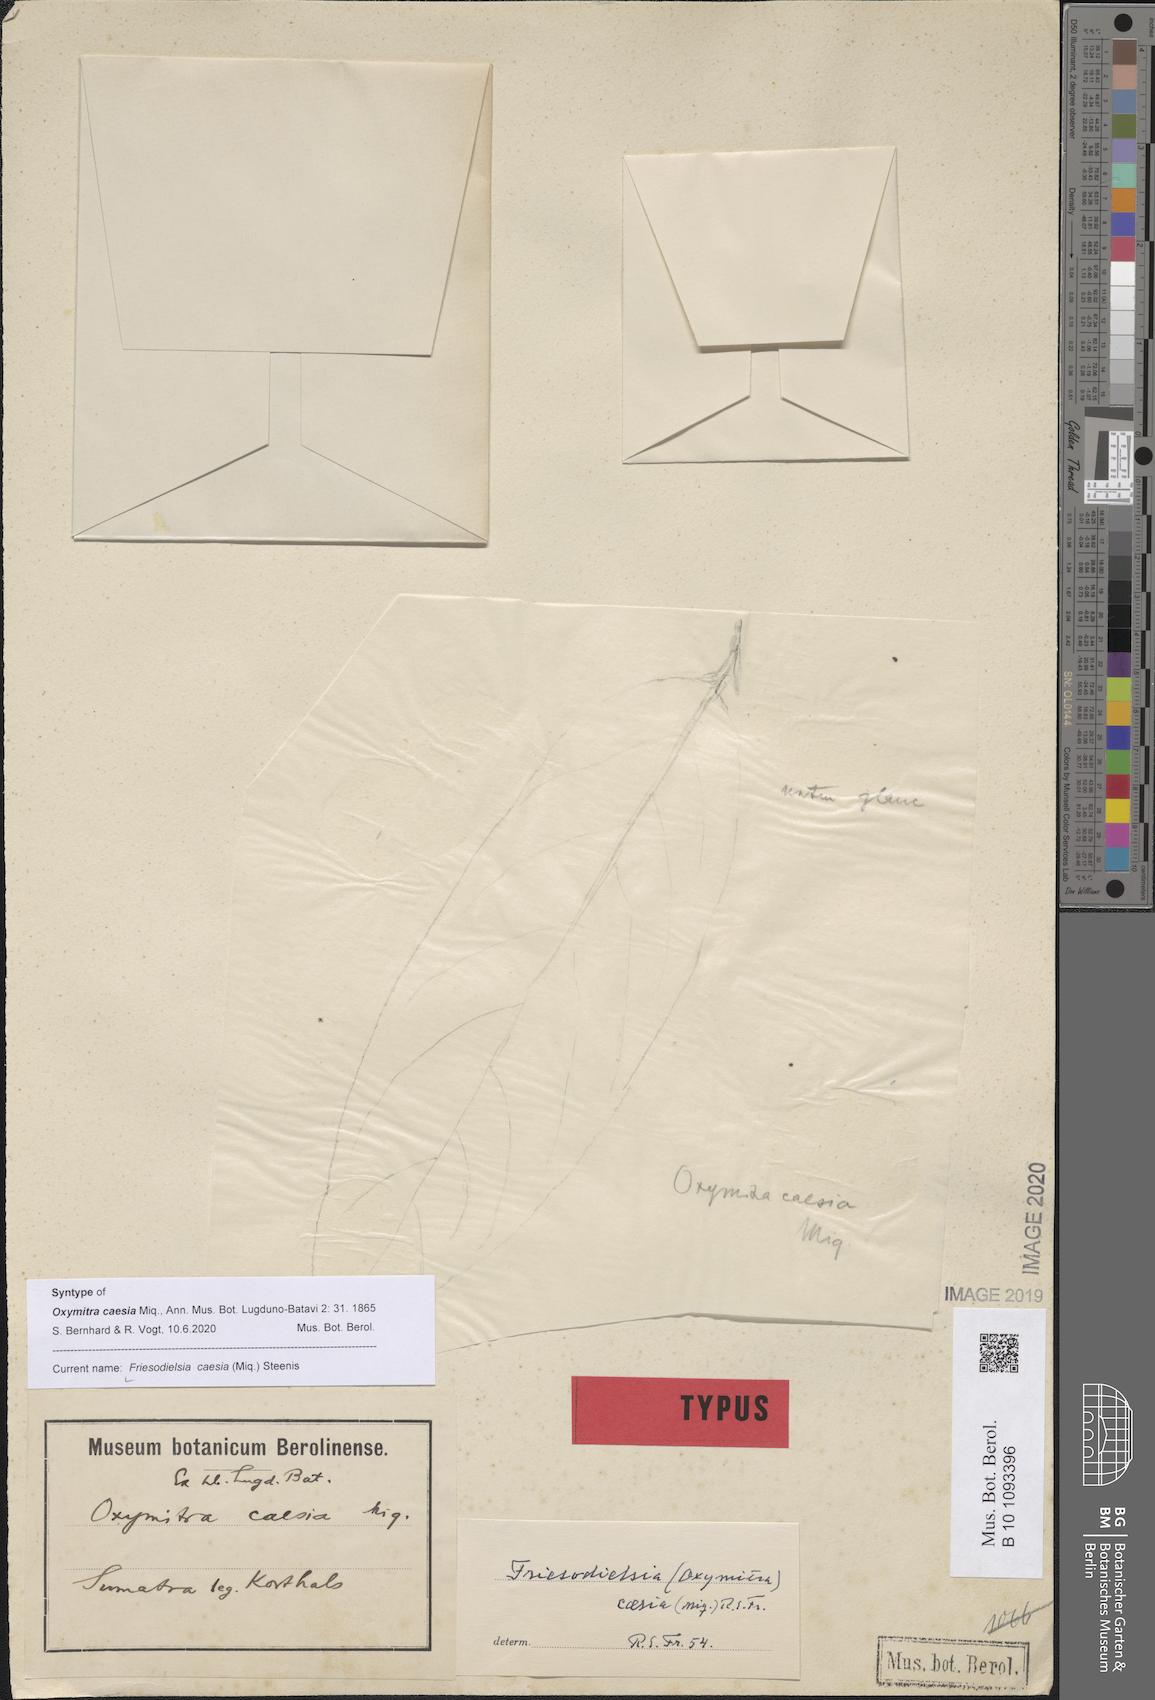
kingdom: Plantae
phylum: Tracheophyta
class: Magnoliopsida
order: Magnoliales
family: Annonaceae
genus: Friesodielsia
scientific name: Friesodielsia caesia
